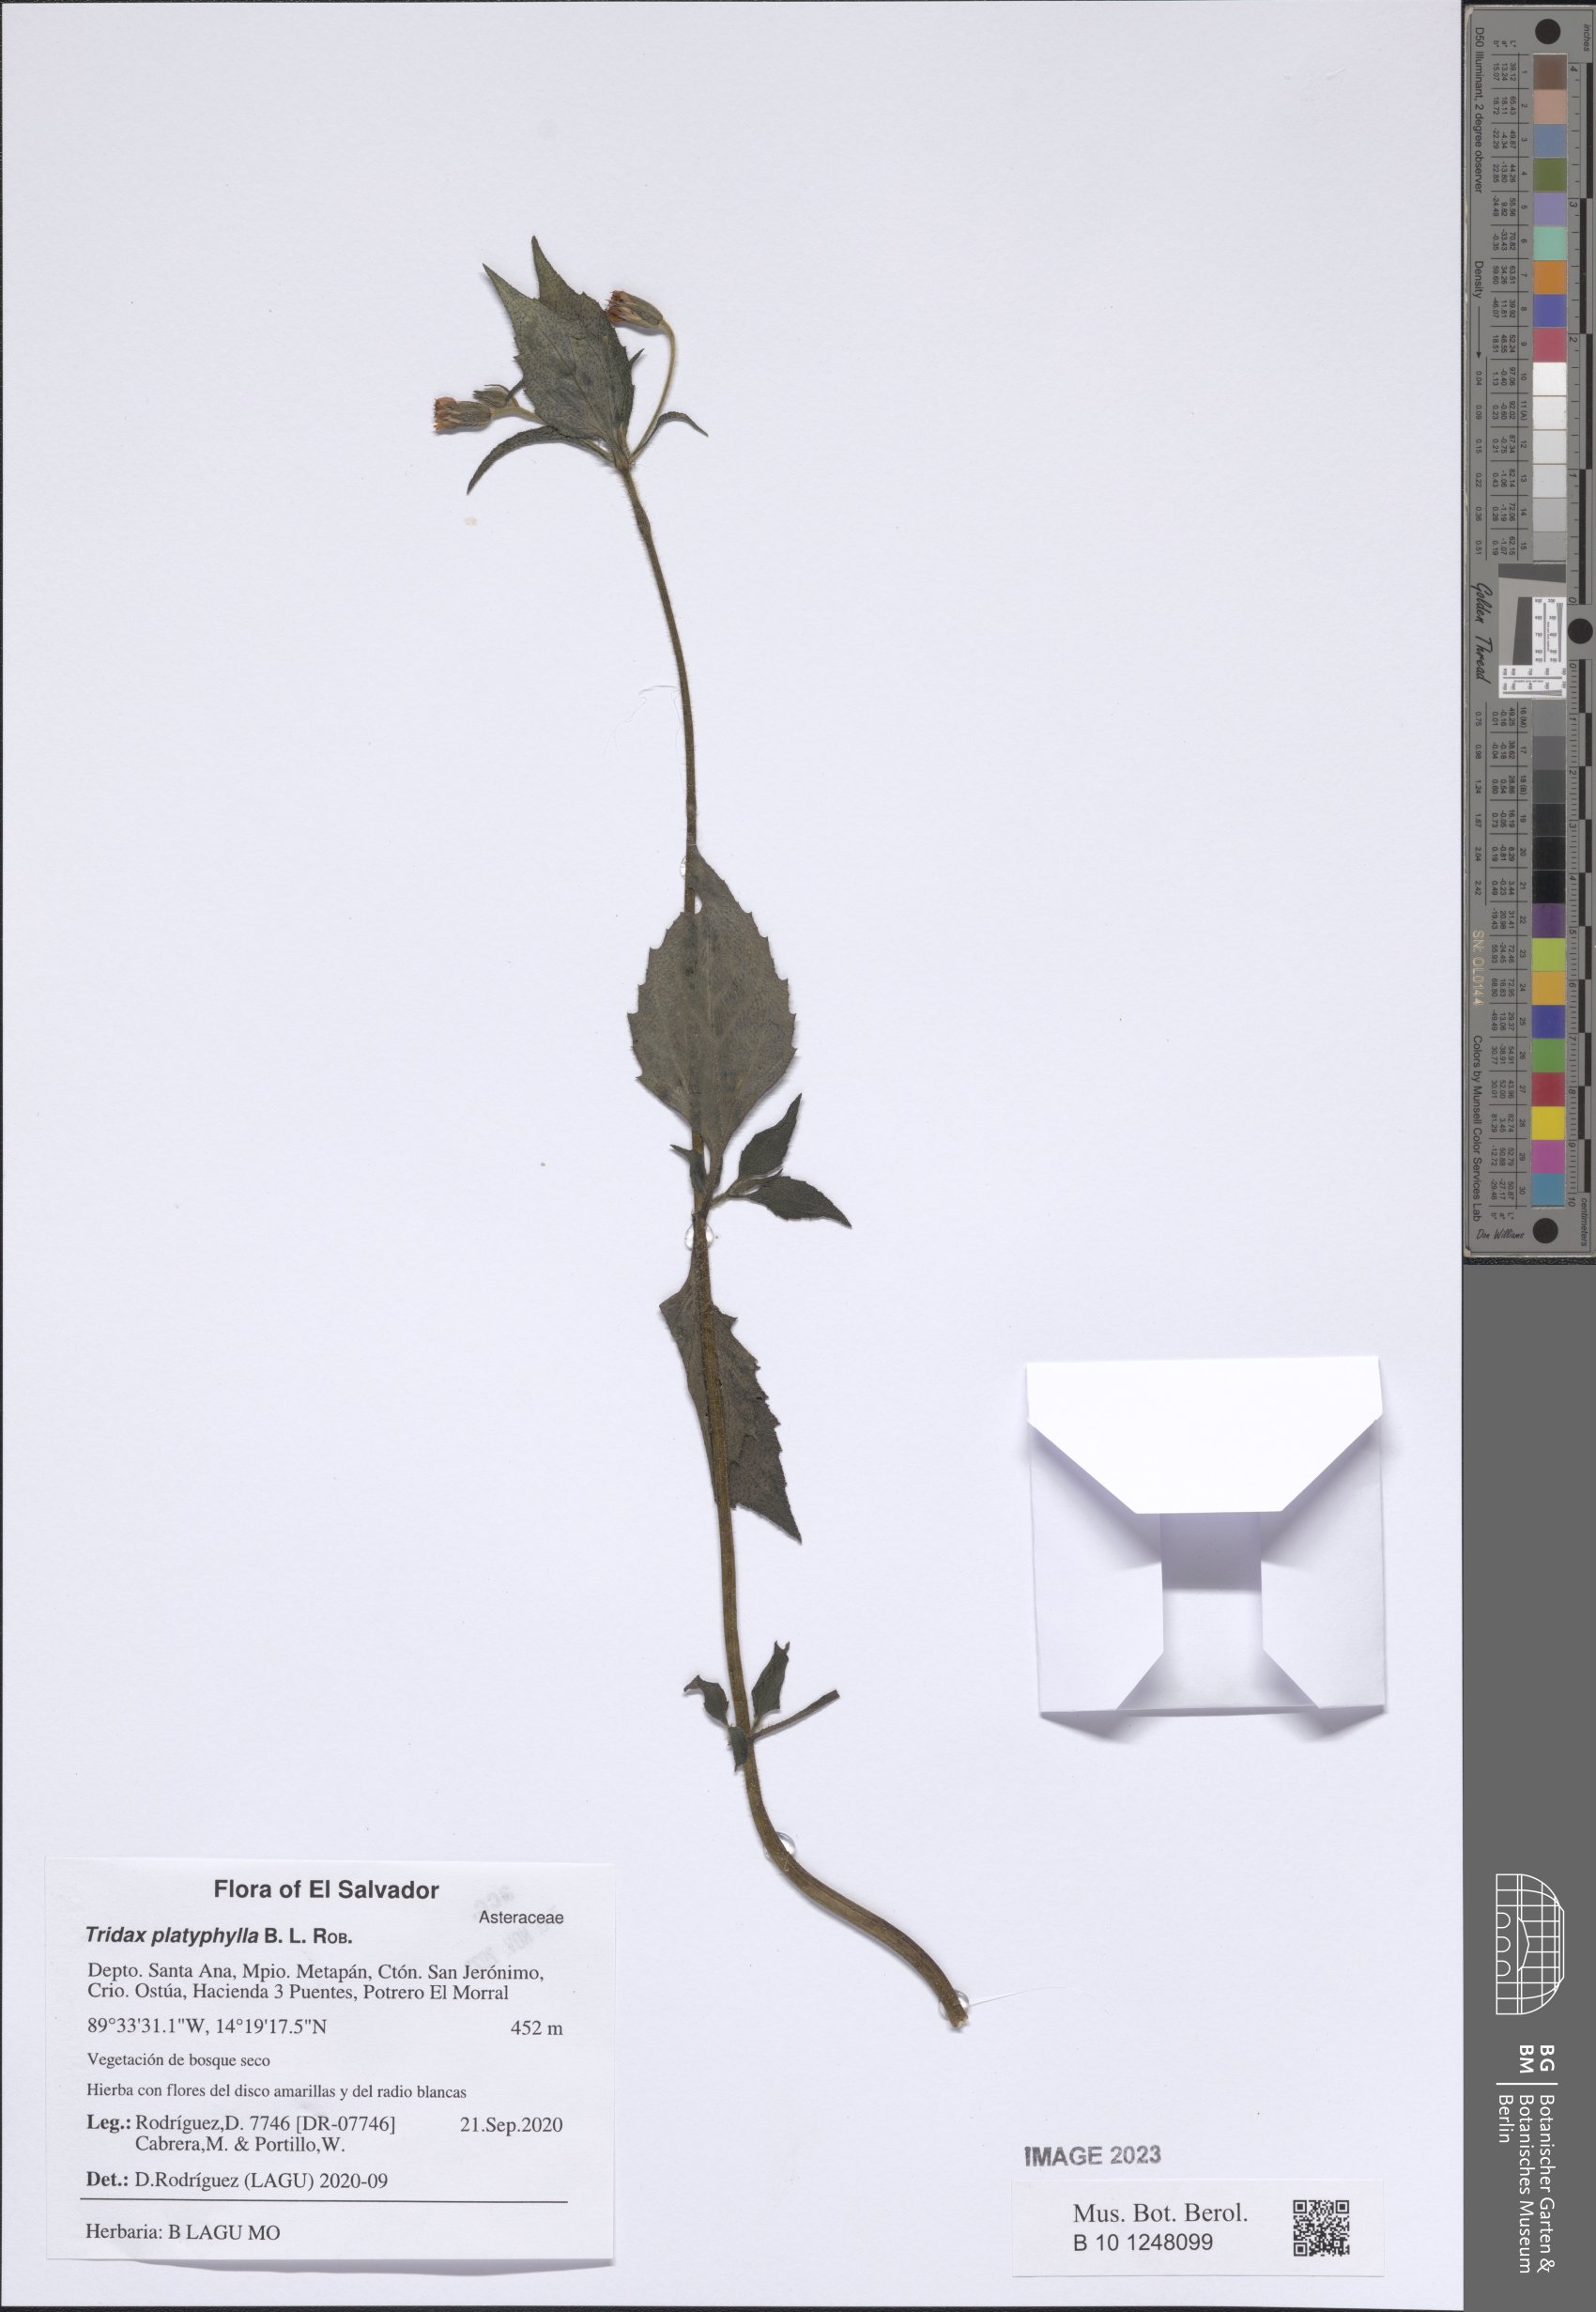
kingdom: Plantae
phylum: Tracheophyta
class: Magnoliopsida
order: Asterales
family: Asteraceae
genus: Tridax
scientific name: Tridax platyphylla
